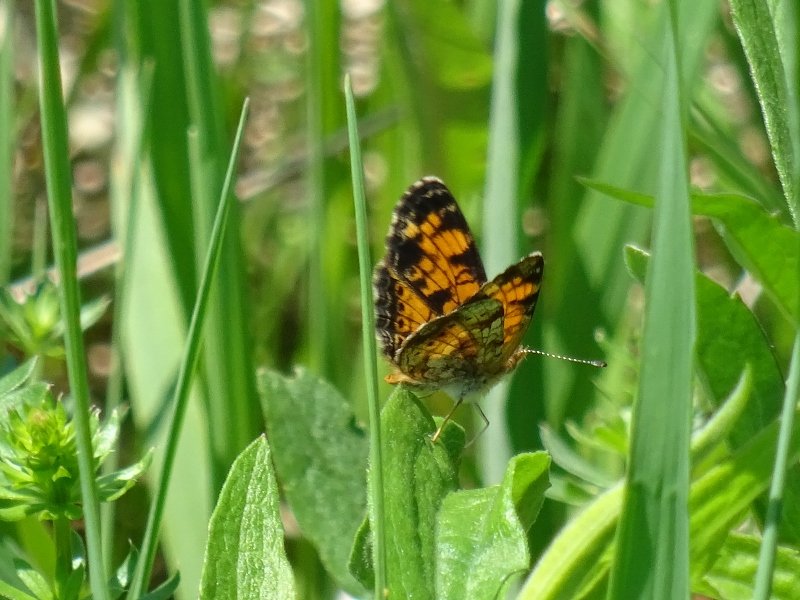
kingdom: Animalia
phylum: Arthropoda
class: Insecta
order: Lepidoptera
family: Nymphalidae
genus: Phyciodes
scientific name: Phyciodes tharos
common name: Pearl Crescent
